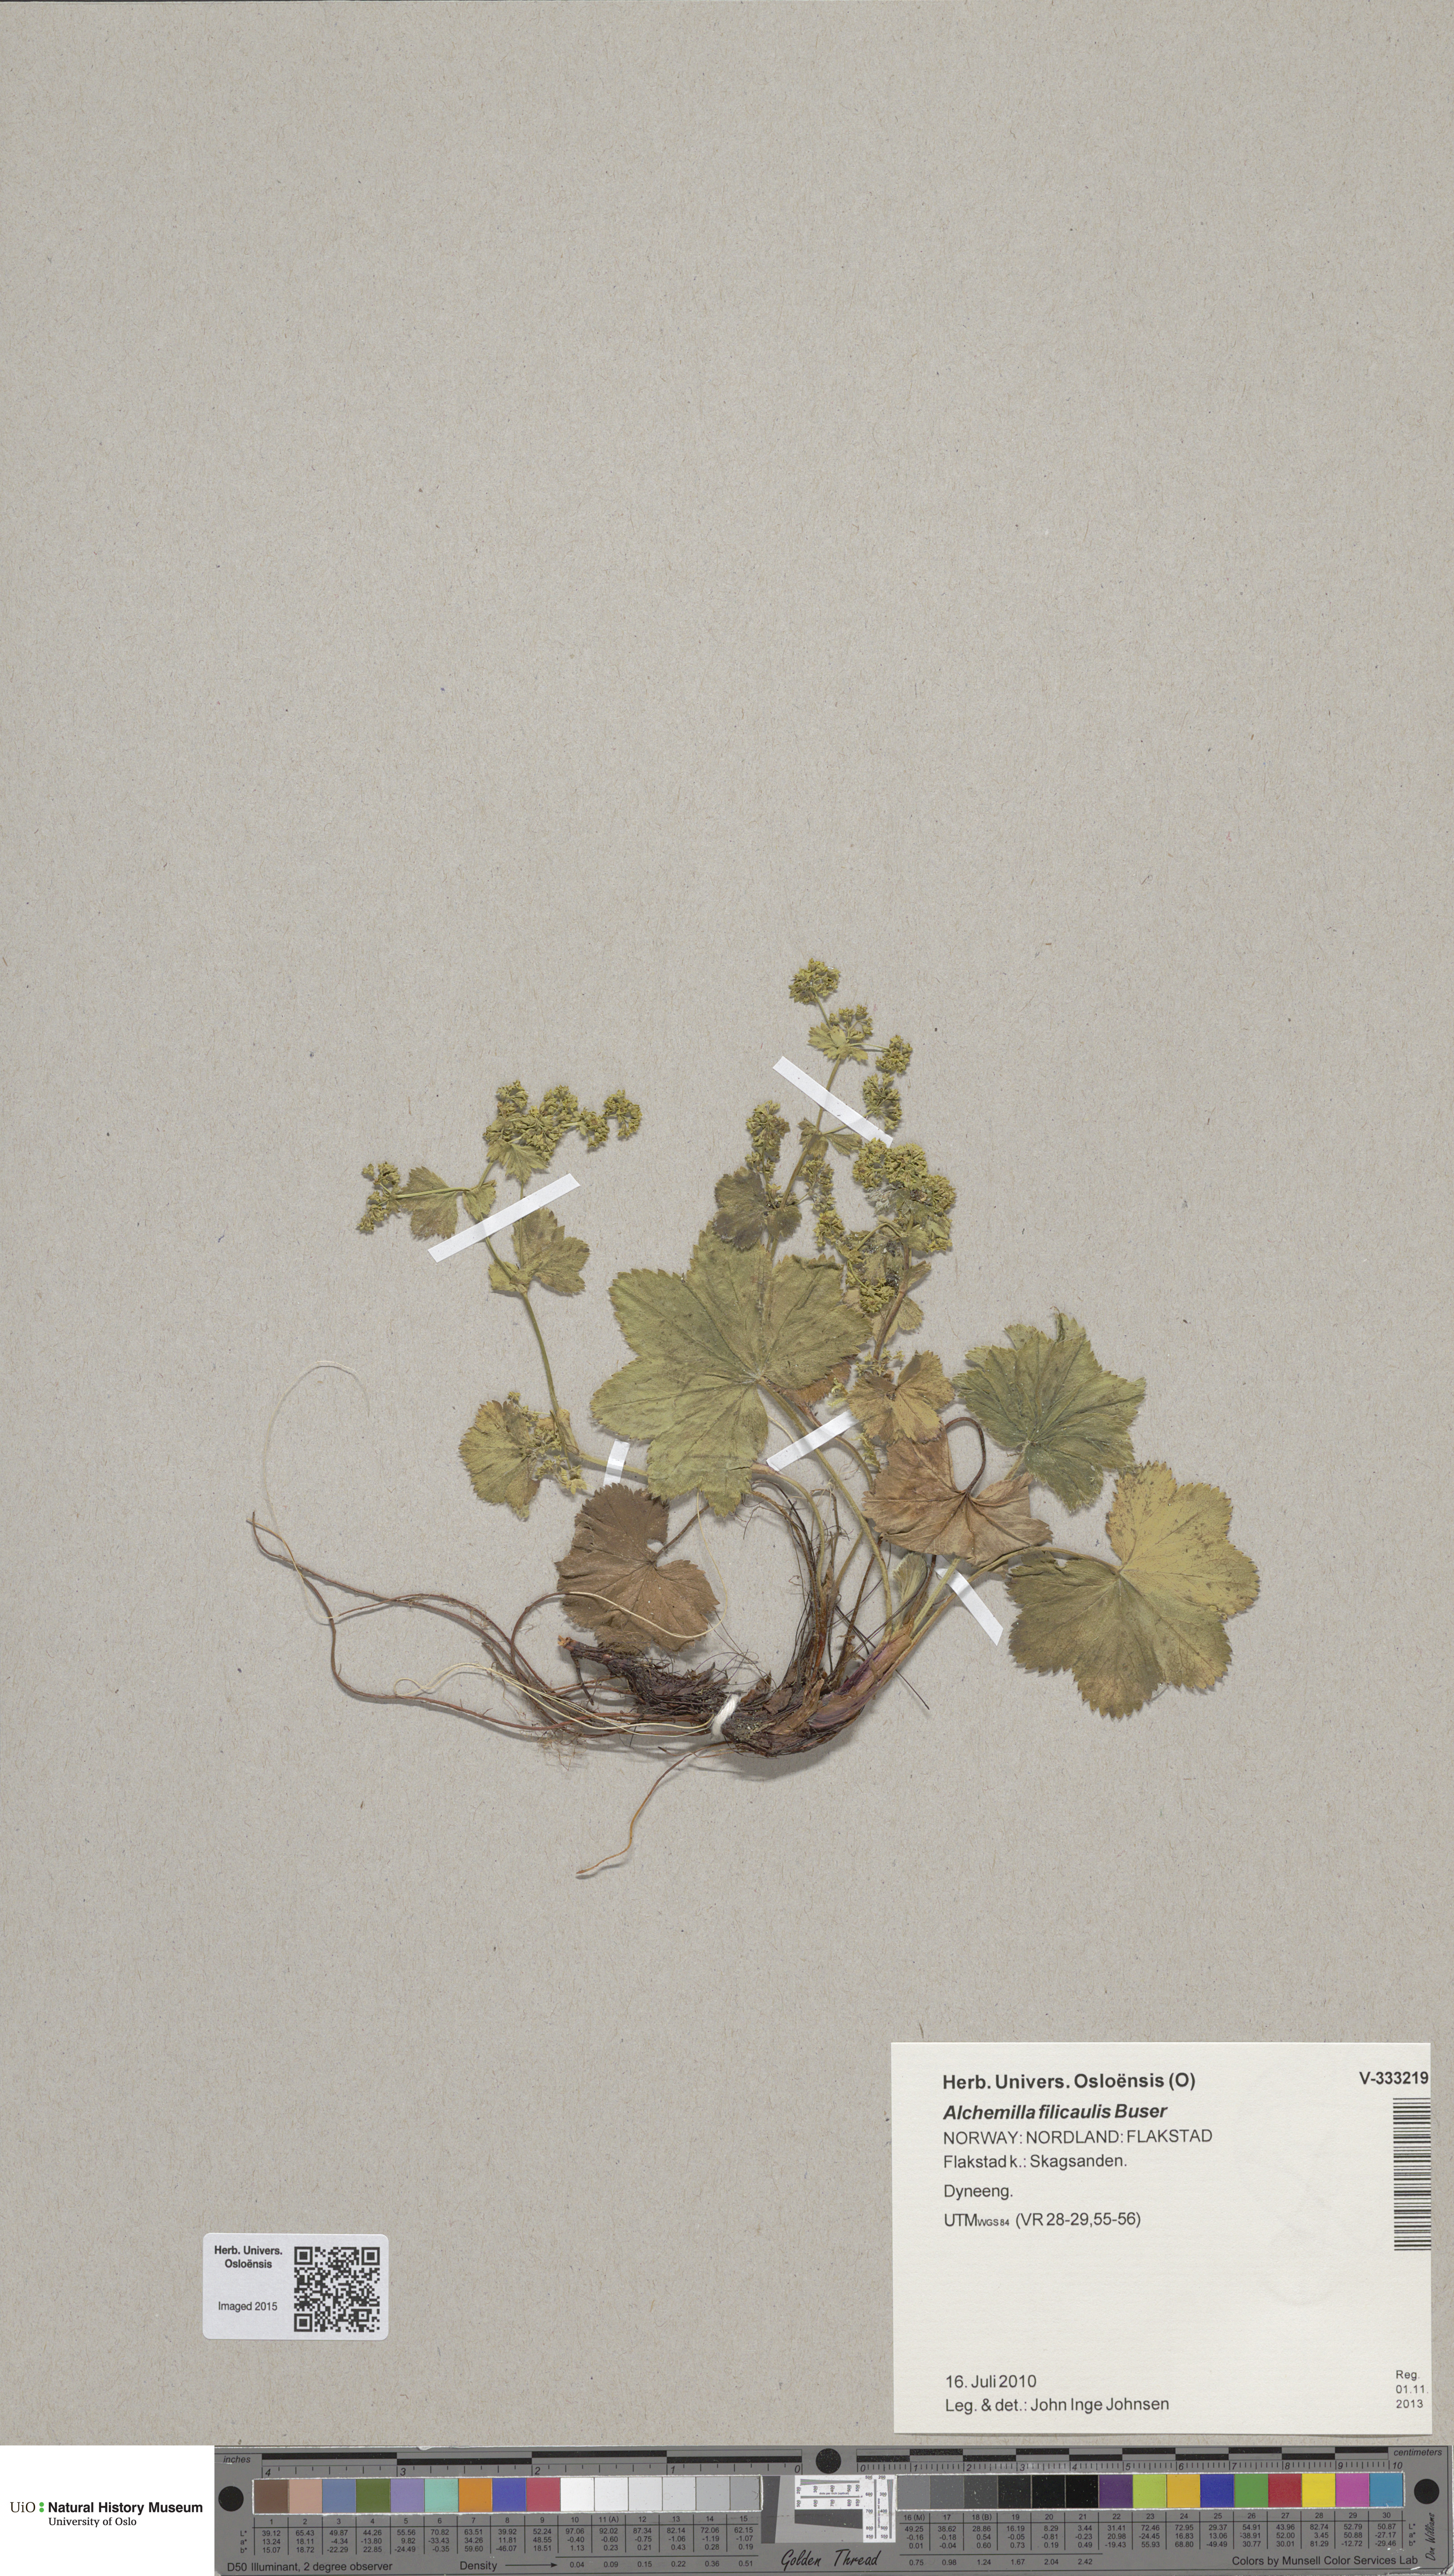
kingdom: Plantae
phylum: Tracheophyta
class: Magnoliopsida
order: Rosales
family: Rosaceae
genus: Alchemilla
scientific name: Alchemilla filicaulis
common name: Hairy lady's-mantle
